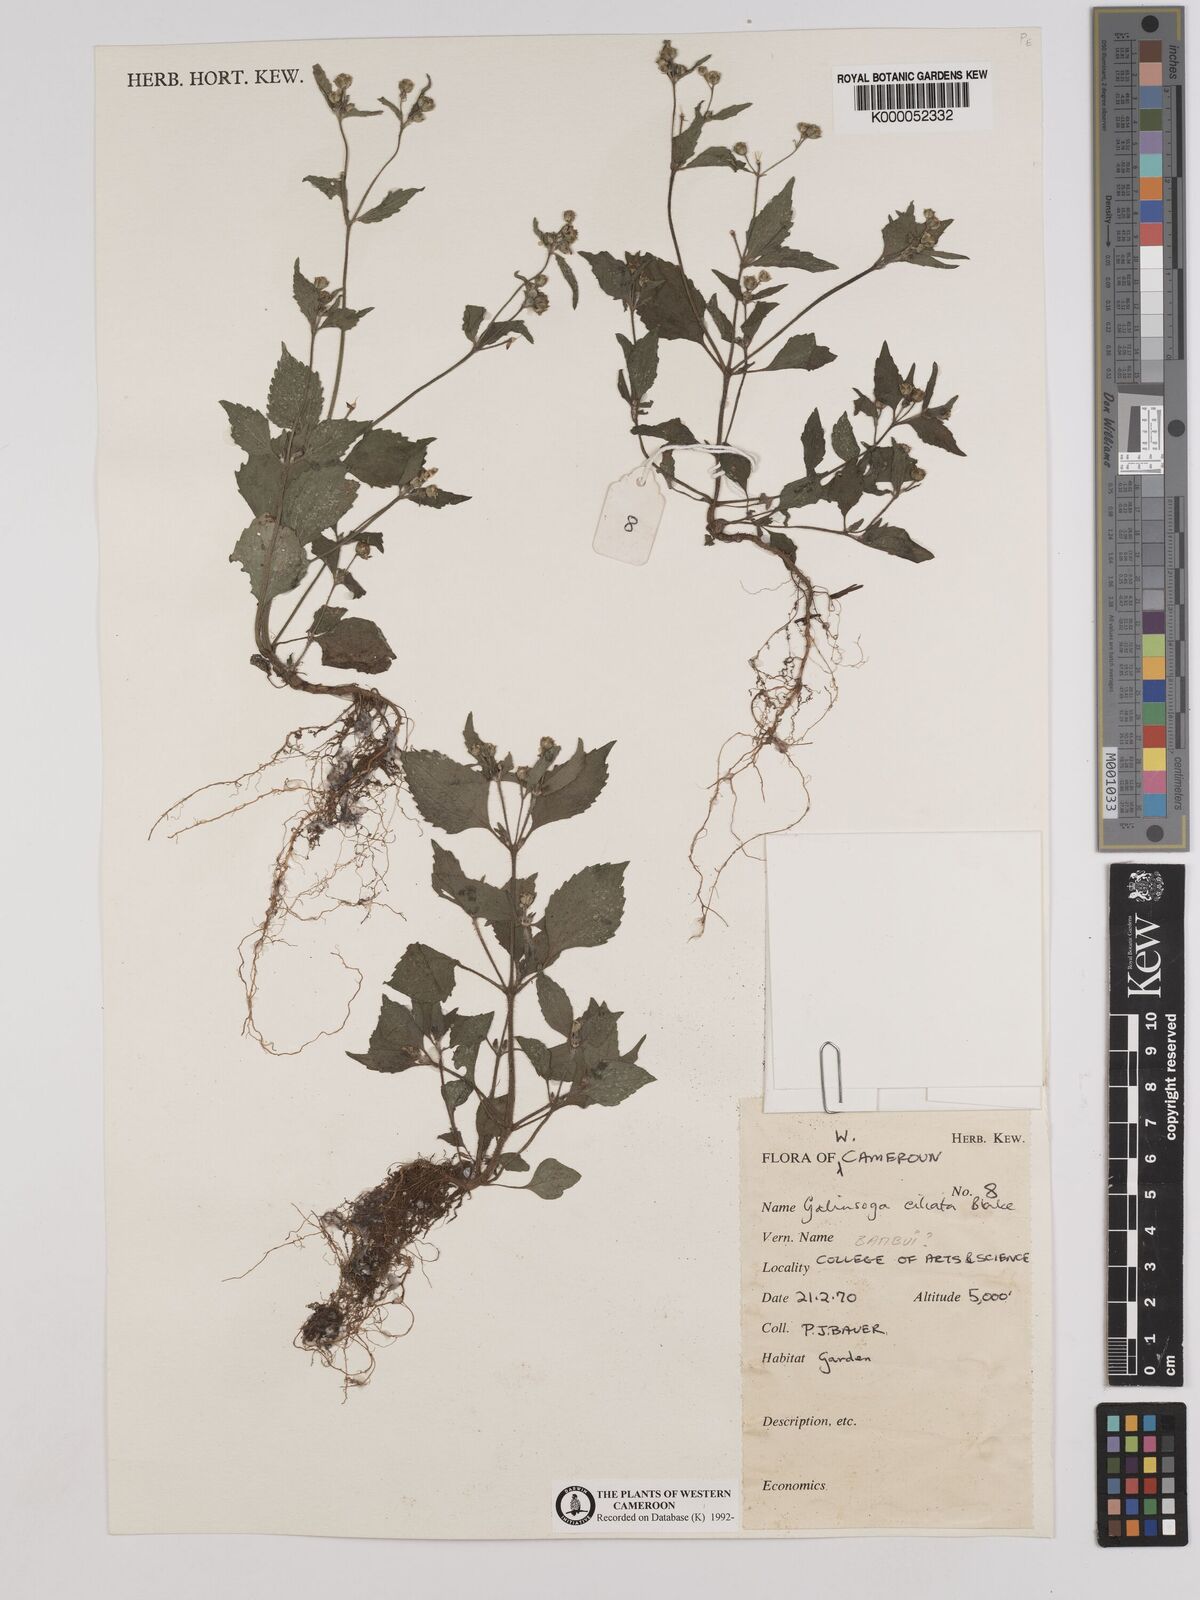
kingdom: Plantae
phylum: Tracheophyta
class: Magnoliopsida
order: Asterales
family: Asteraceae
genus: Galinsoga
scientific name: Galinsoga quadriradiata
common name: Shaggy soldier
